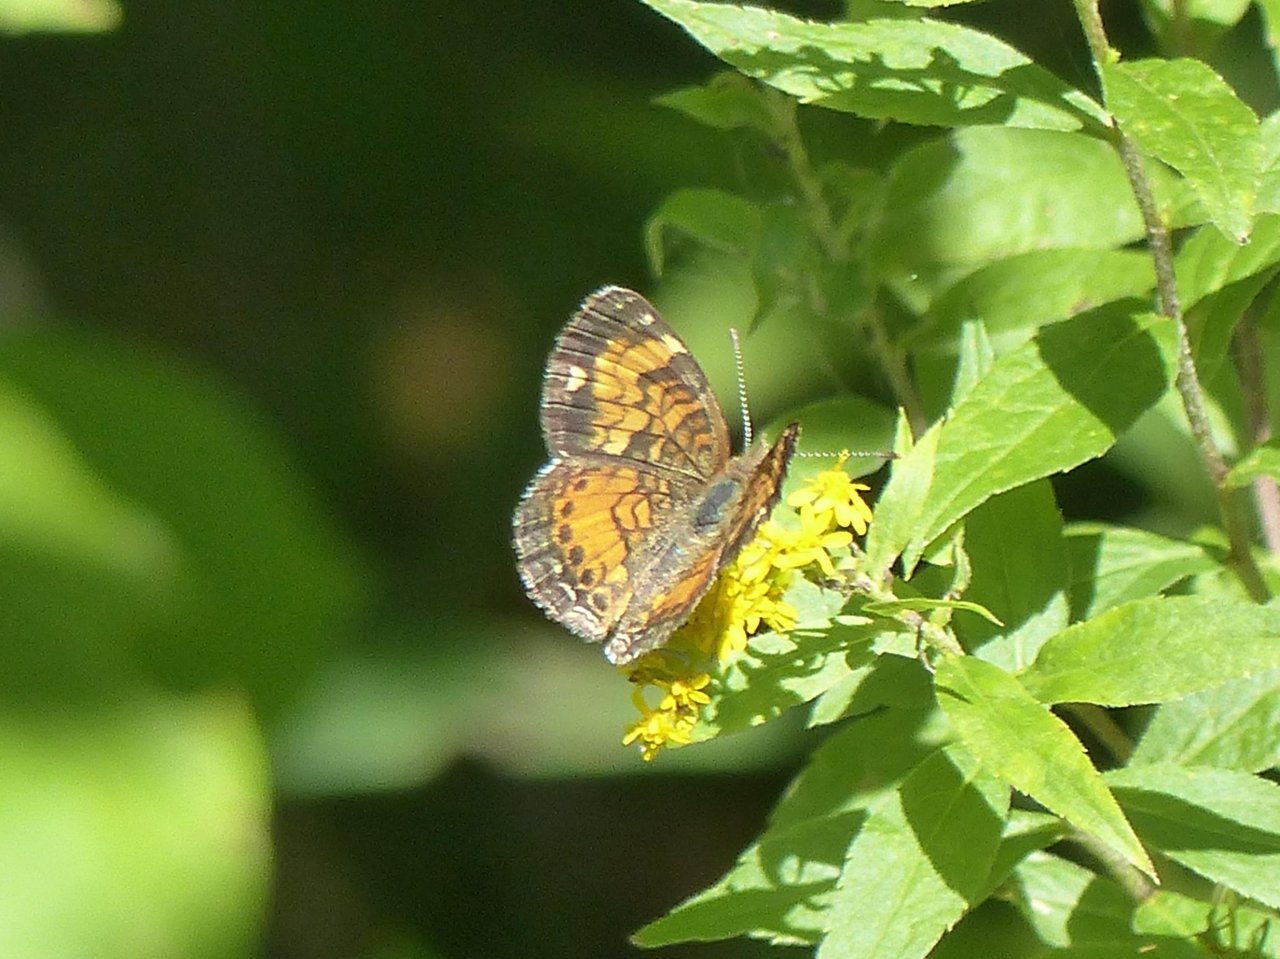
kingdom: Animalia
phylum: Arthropoda
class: Insecta
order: Lepidoptera
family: Nymphalidae
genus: Phyciodes
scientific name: Phyciodes tharos
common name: Pearl Crescent
